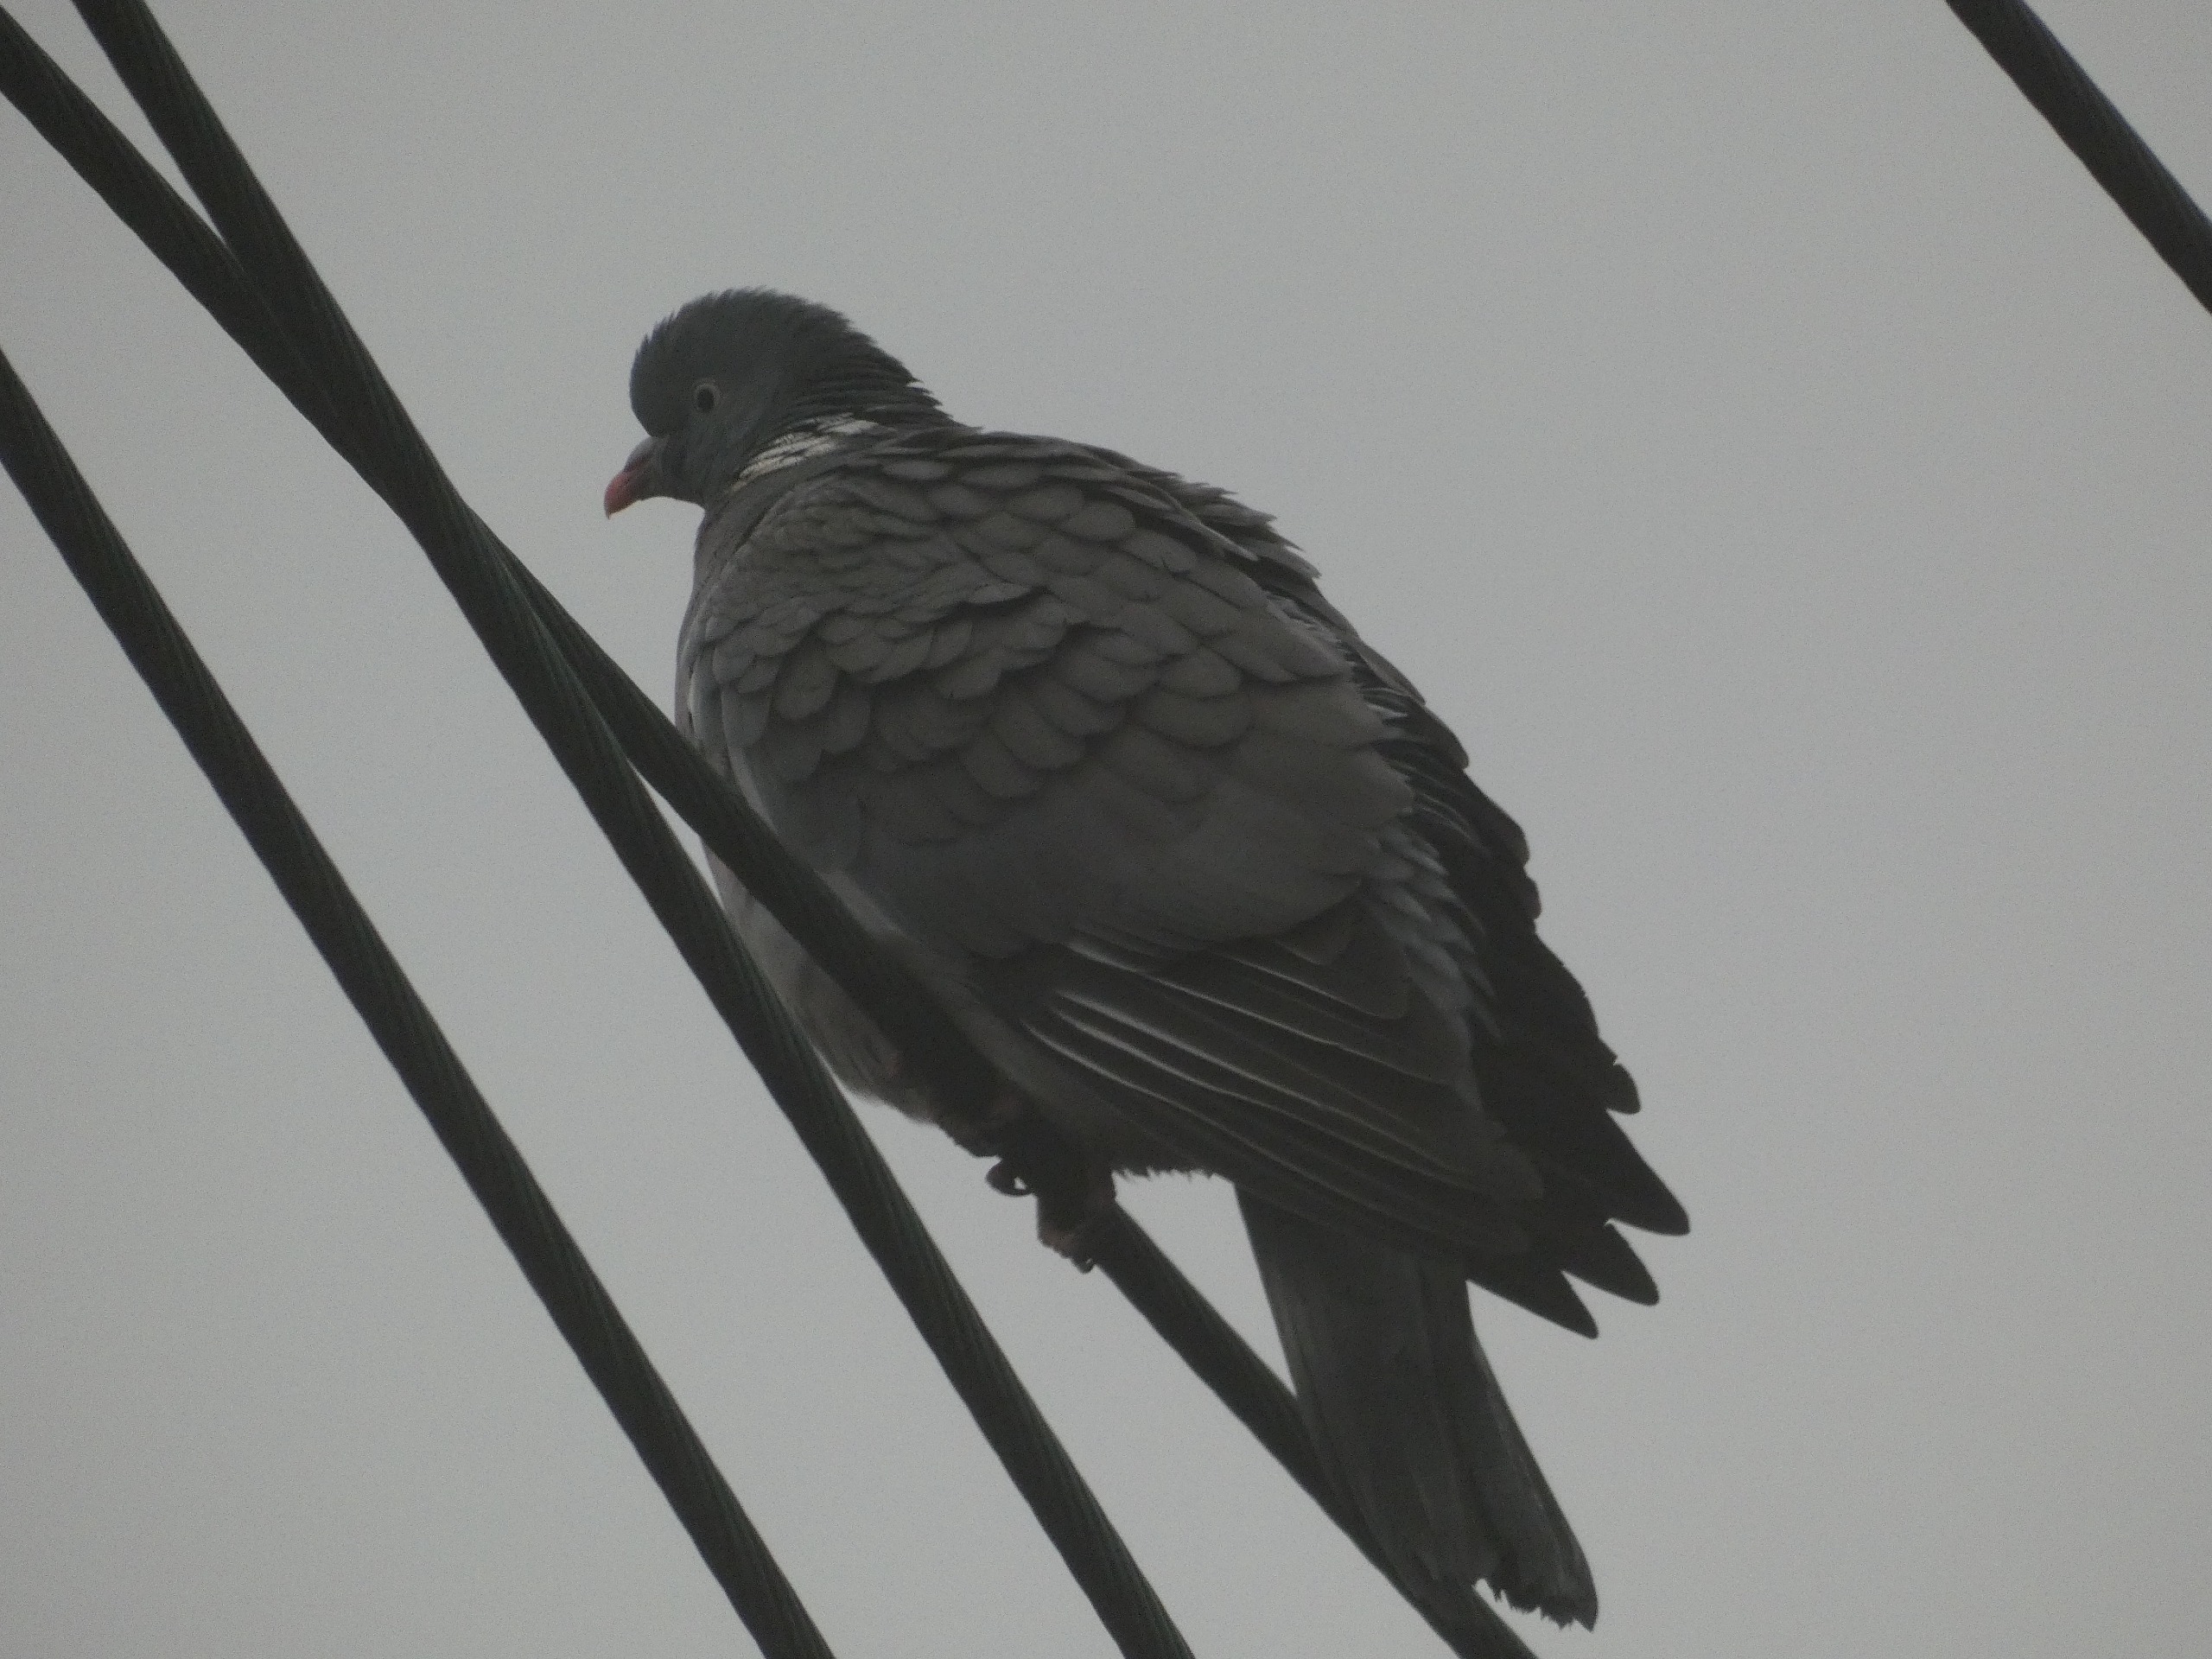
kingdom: Animalia
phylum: Chordata
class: Aves
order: Columbiformes
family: Columbidae
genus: Columba
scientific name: Columba palumbus
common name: Ringdue
